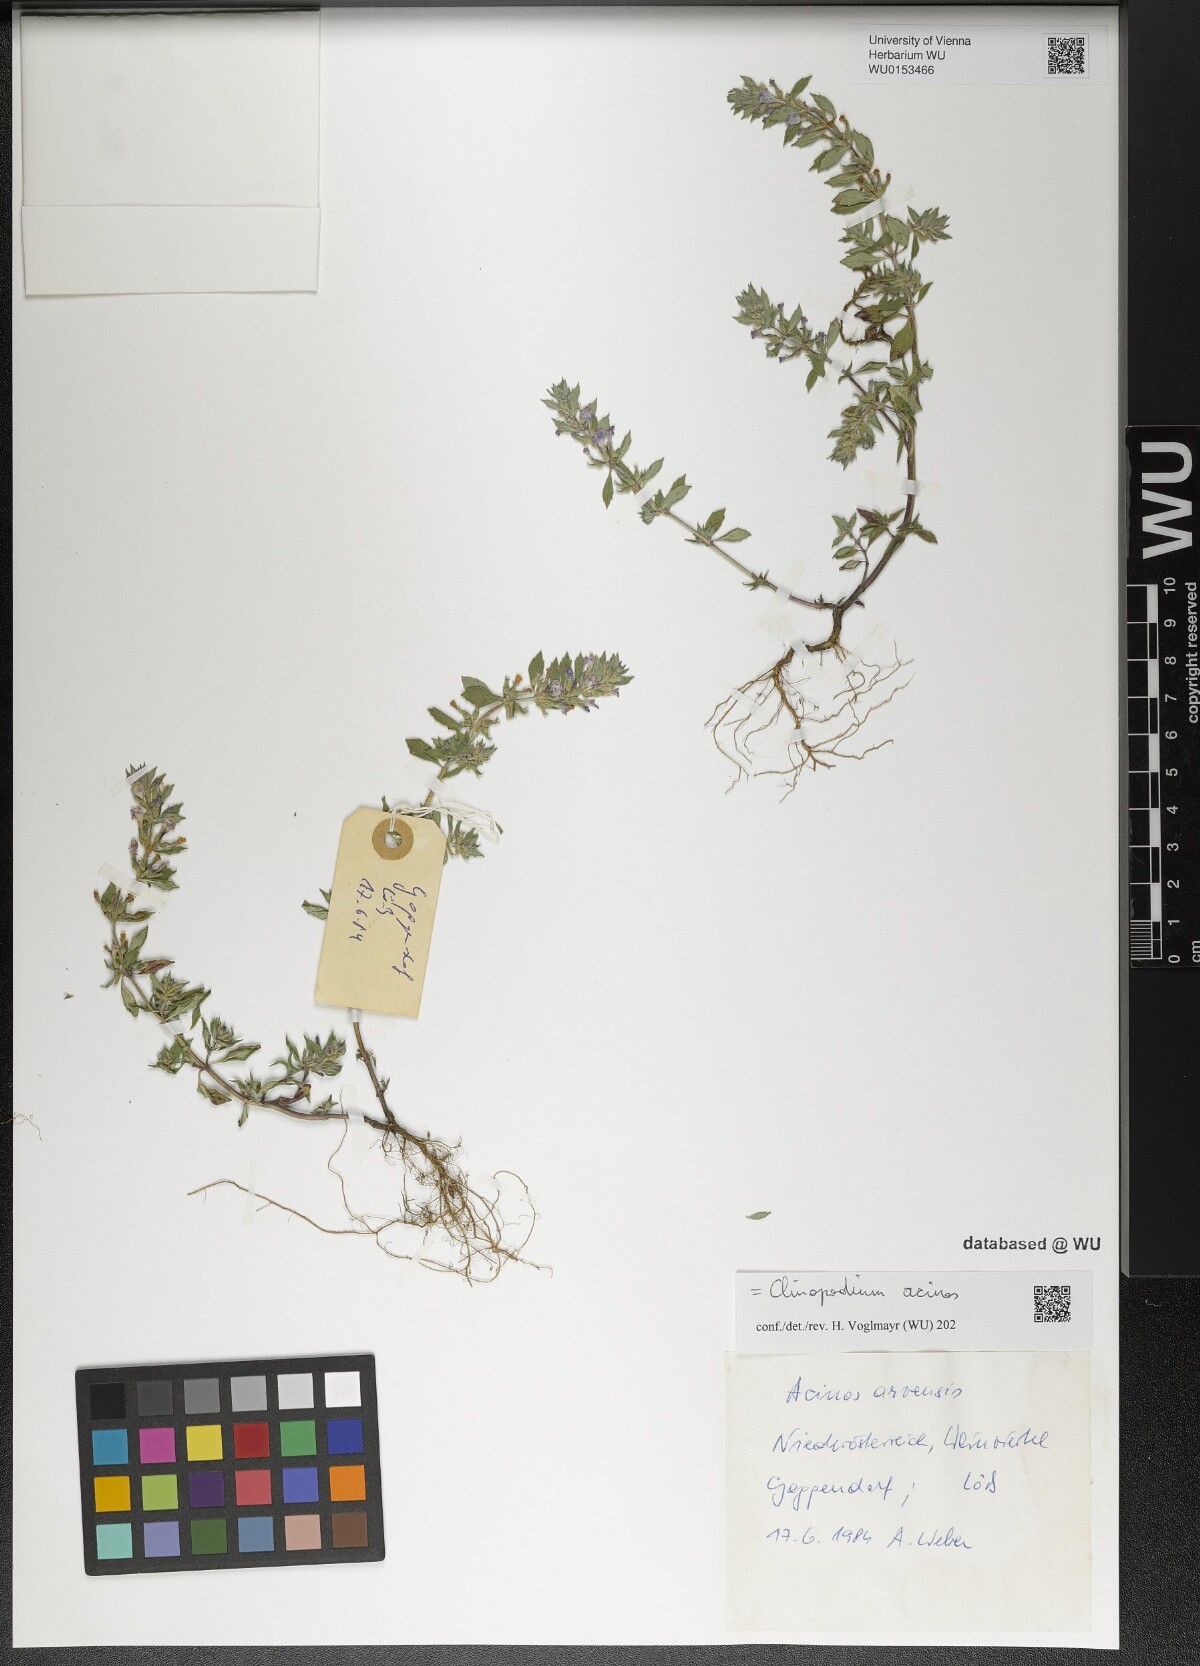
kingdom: Plantae
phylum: Tracheophyta
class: Magnoliopsida
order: Lamiales
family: Lamiaceae
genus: Clinopodium
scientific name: Clinopodium acinos
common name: Basil thyme
